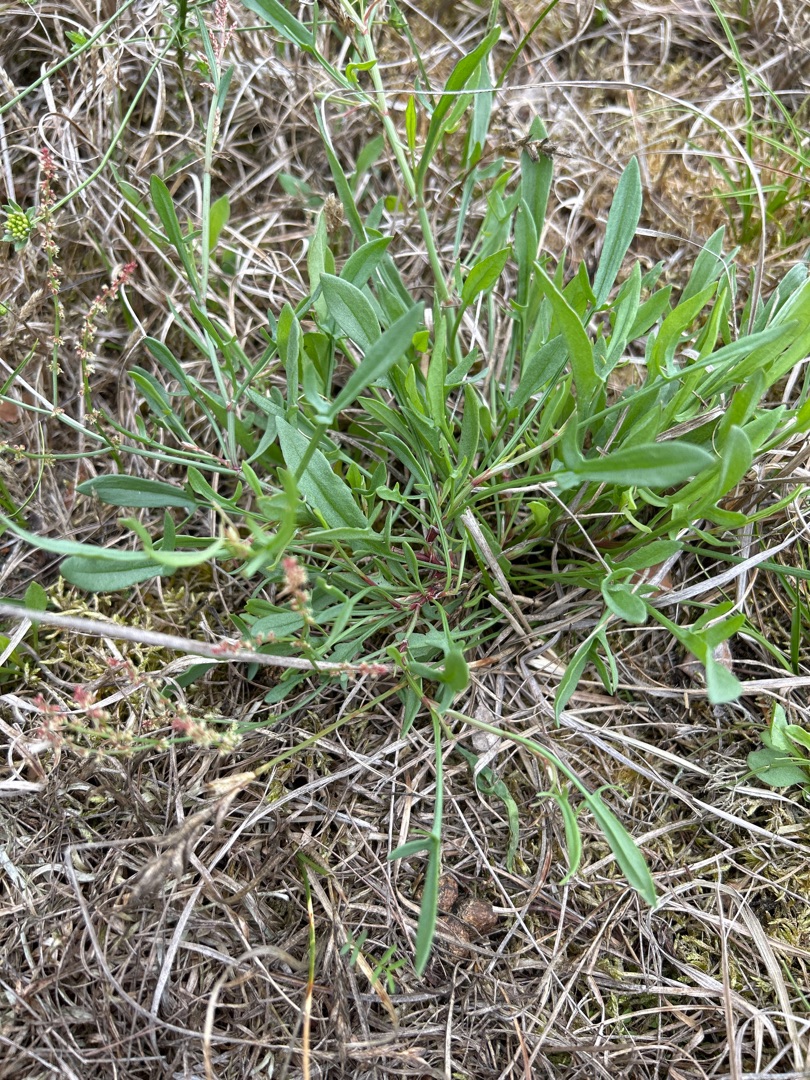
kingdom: Plantae
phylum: Tracheophyta
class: Magnoliopsida
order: Caryophyllales
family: Polygonaceae
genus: Rumex
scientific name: Rumex acetosella
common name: Rødknæ
